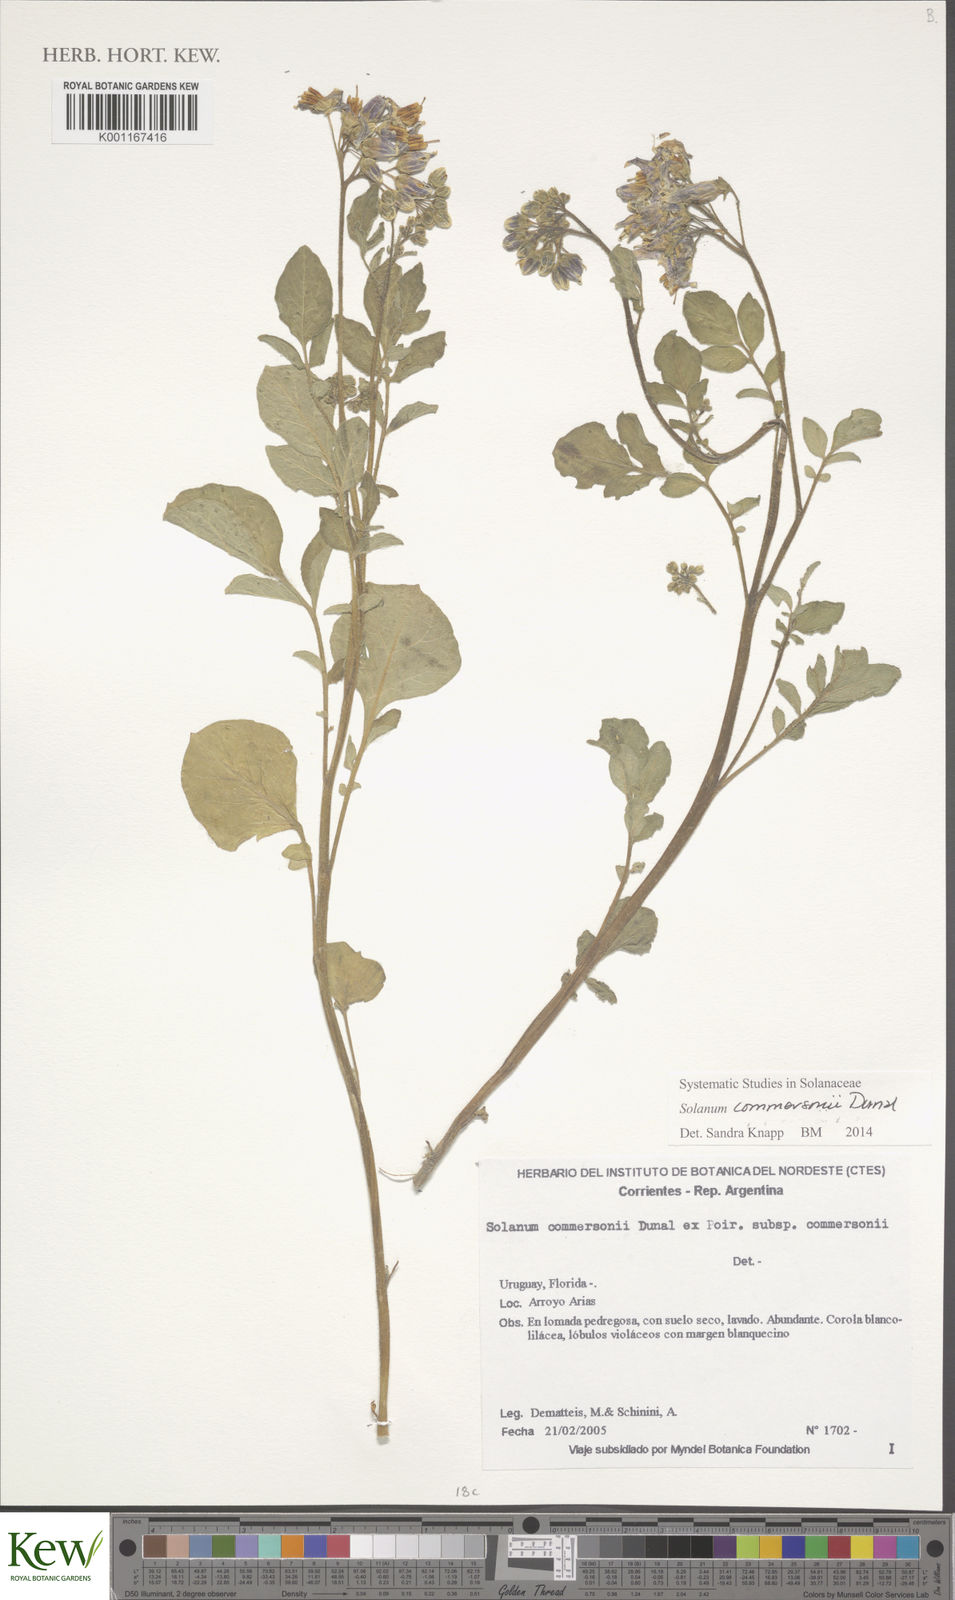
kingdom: Plantae
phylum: Tracheophyta
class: Magnoliopsida
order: Solanales
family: Solanaceae
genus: Solanum
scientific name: Solanum commersonii
